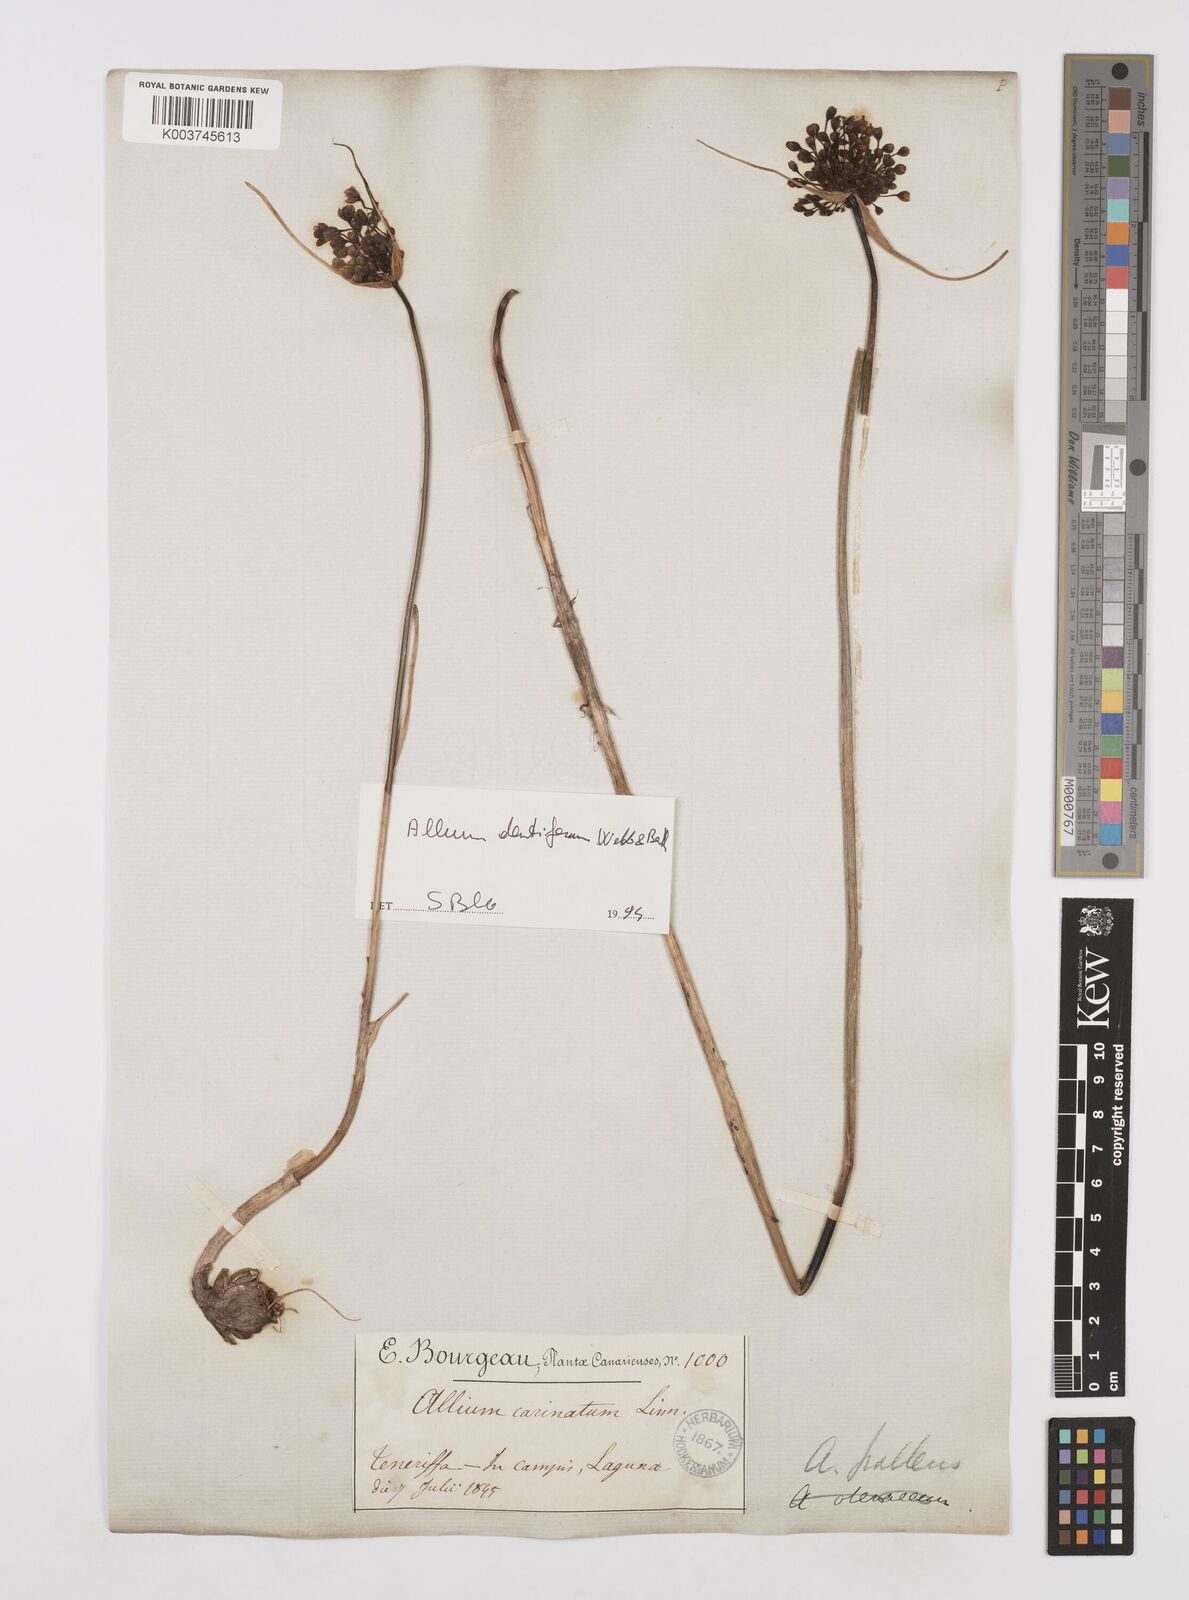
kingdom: Plantae
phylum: Tracheophyta
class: Liliopsida
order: Asparagales
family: Amaryllidaceae
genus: Allium
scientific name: Allium flavum
